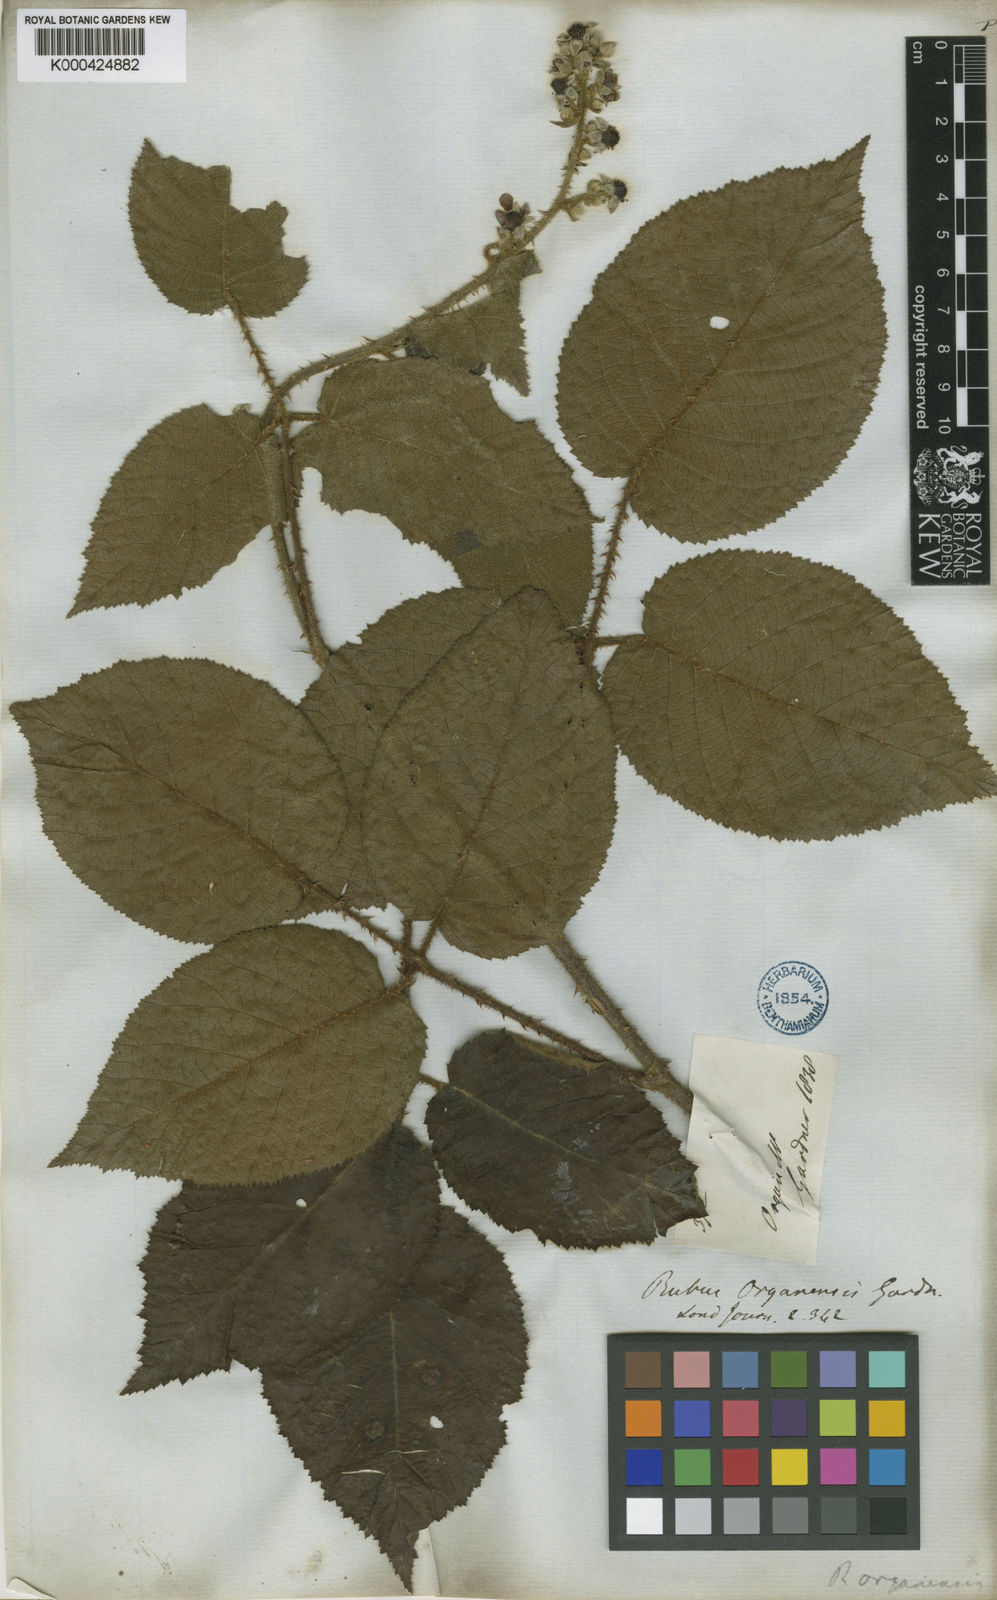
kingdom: Plantae
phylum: Tracheophyta
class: Magnoliopsida
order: Rosales
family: Rosaceae
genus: Rubus
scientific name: Rubus brasiliensis
